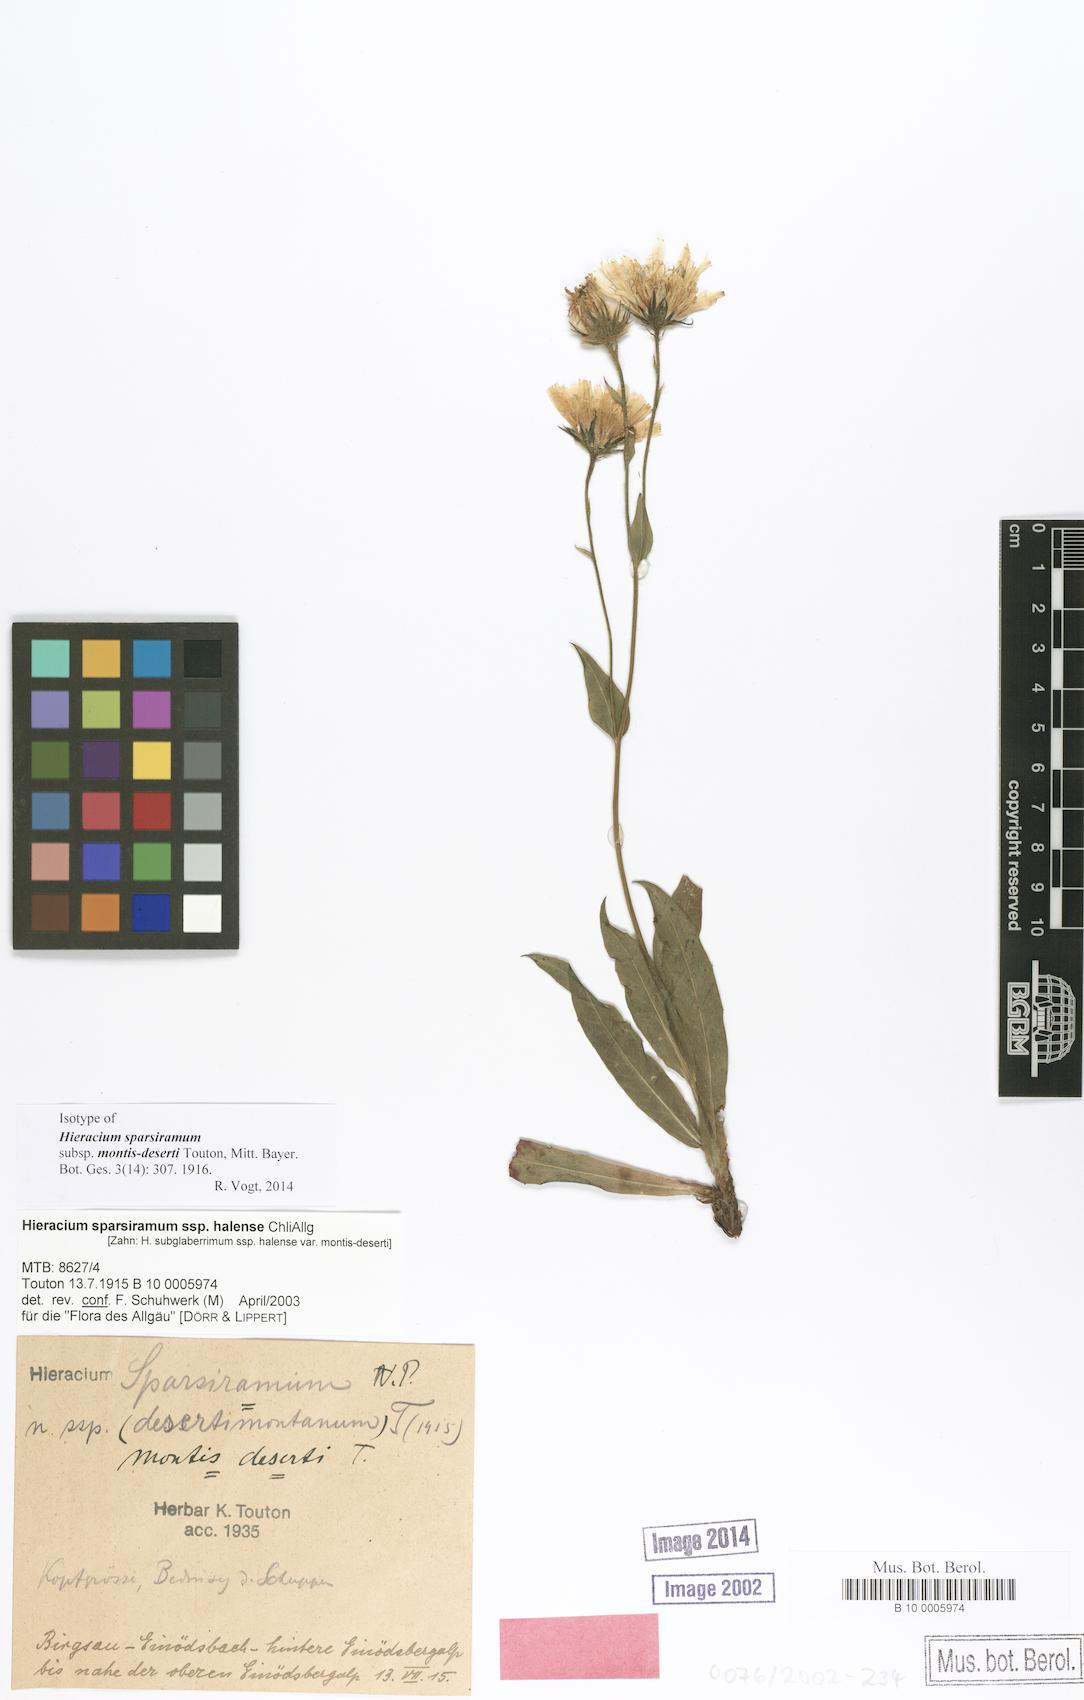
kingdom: Plantae
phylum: Tracheophyta
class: Magnoliopsida
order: Asterales
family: Asteraceae
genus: Hieracium
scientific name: Hieracium sparsiramum
